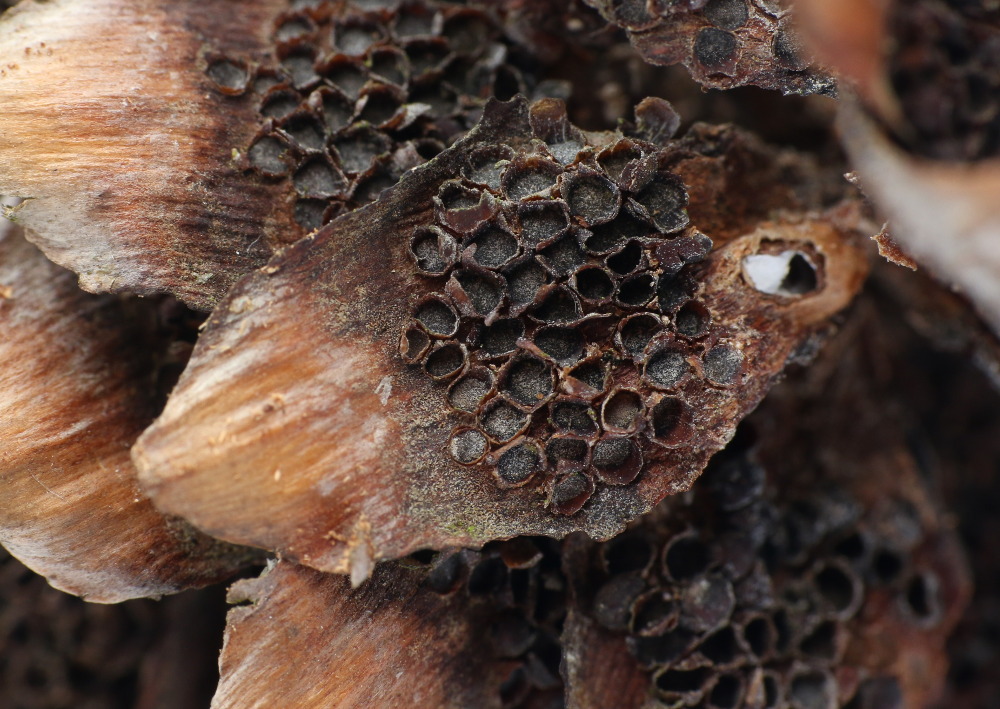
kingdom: Fungi
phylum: Basidiomycota
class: Pucciniomycetes
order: Pucciniales
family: Pucciniastraceae
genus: Thekopsora
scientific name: Thekopsora areolata
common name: grankogle-nålerust
